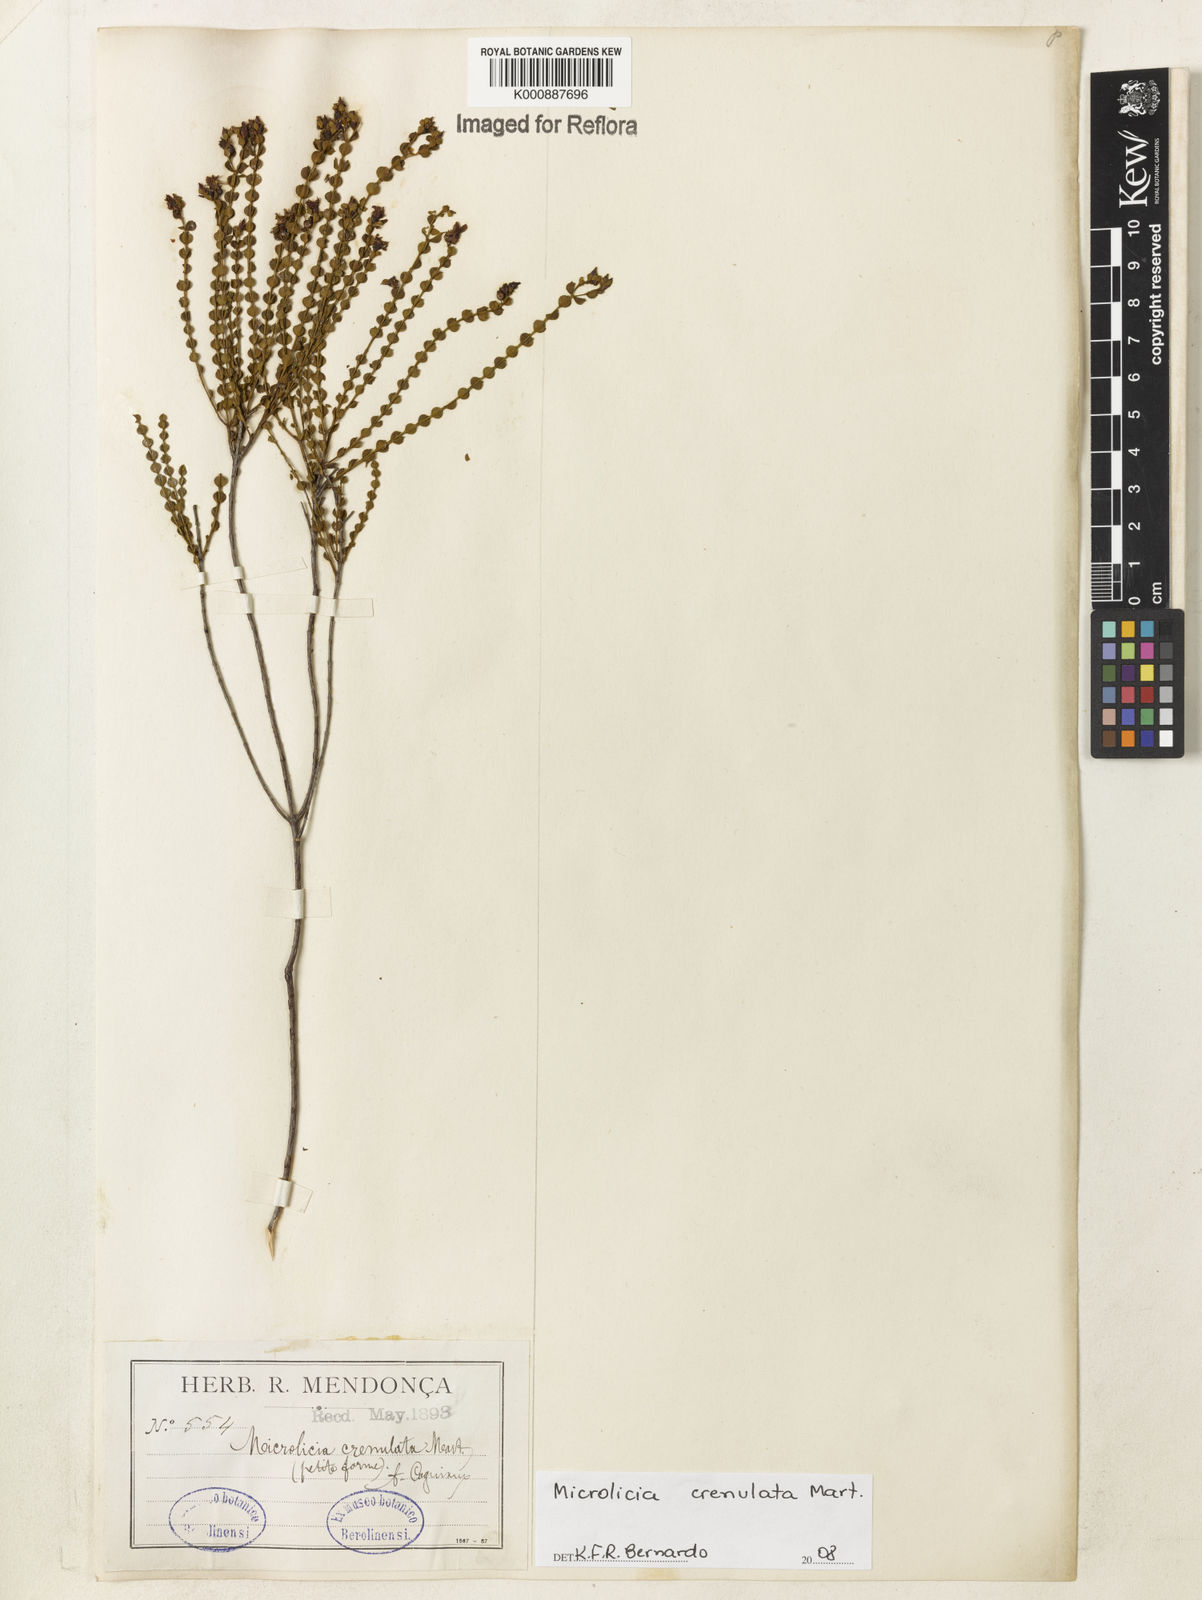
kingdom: Plantae
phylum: Tracheophyta
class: Magnoliopsida
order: Myrtales
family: Melastomataceae
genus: Microlicia
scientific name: Microlicia crenulata
